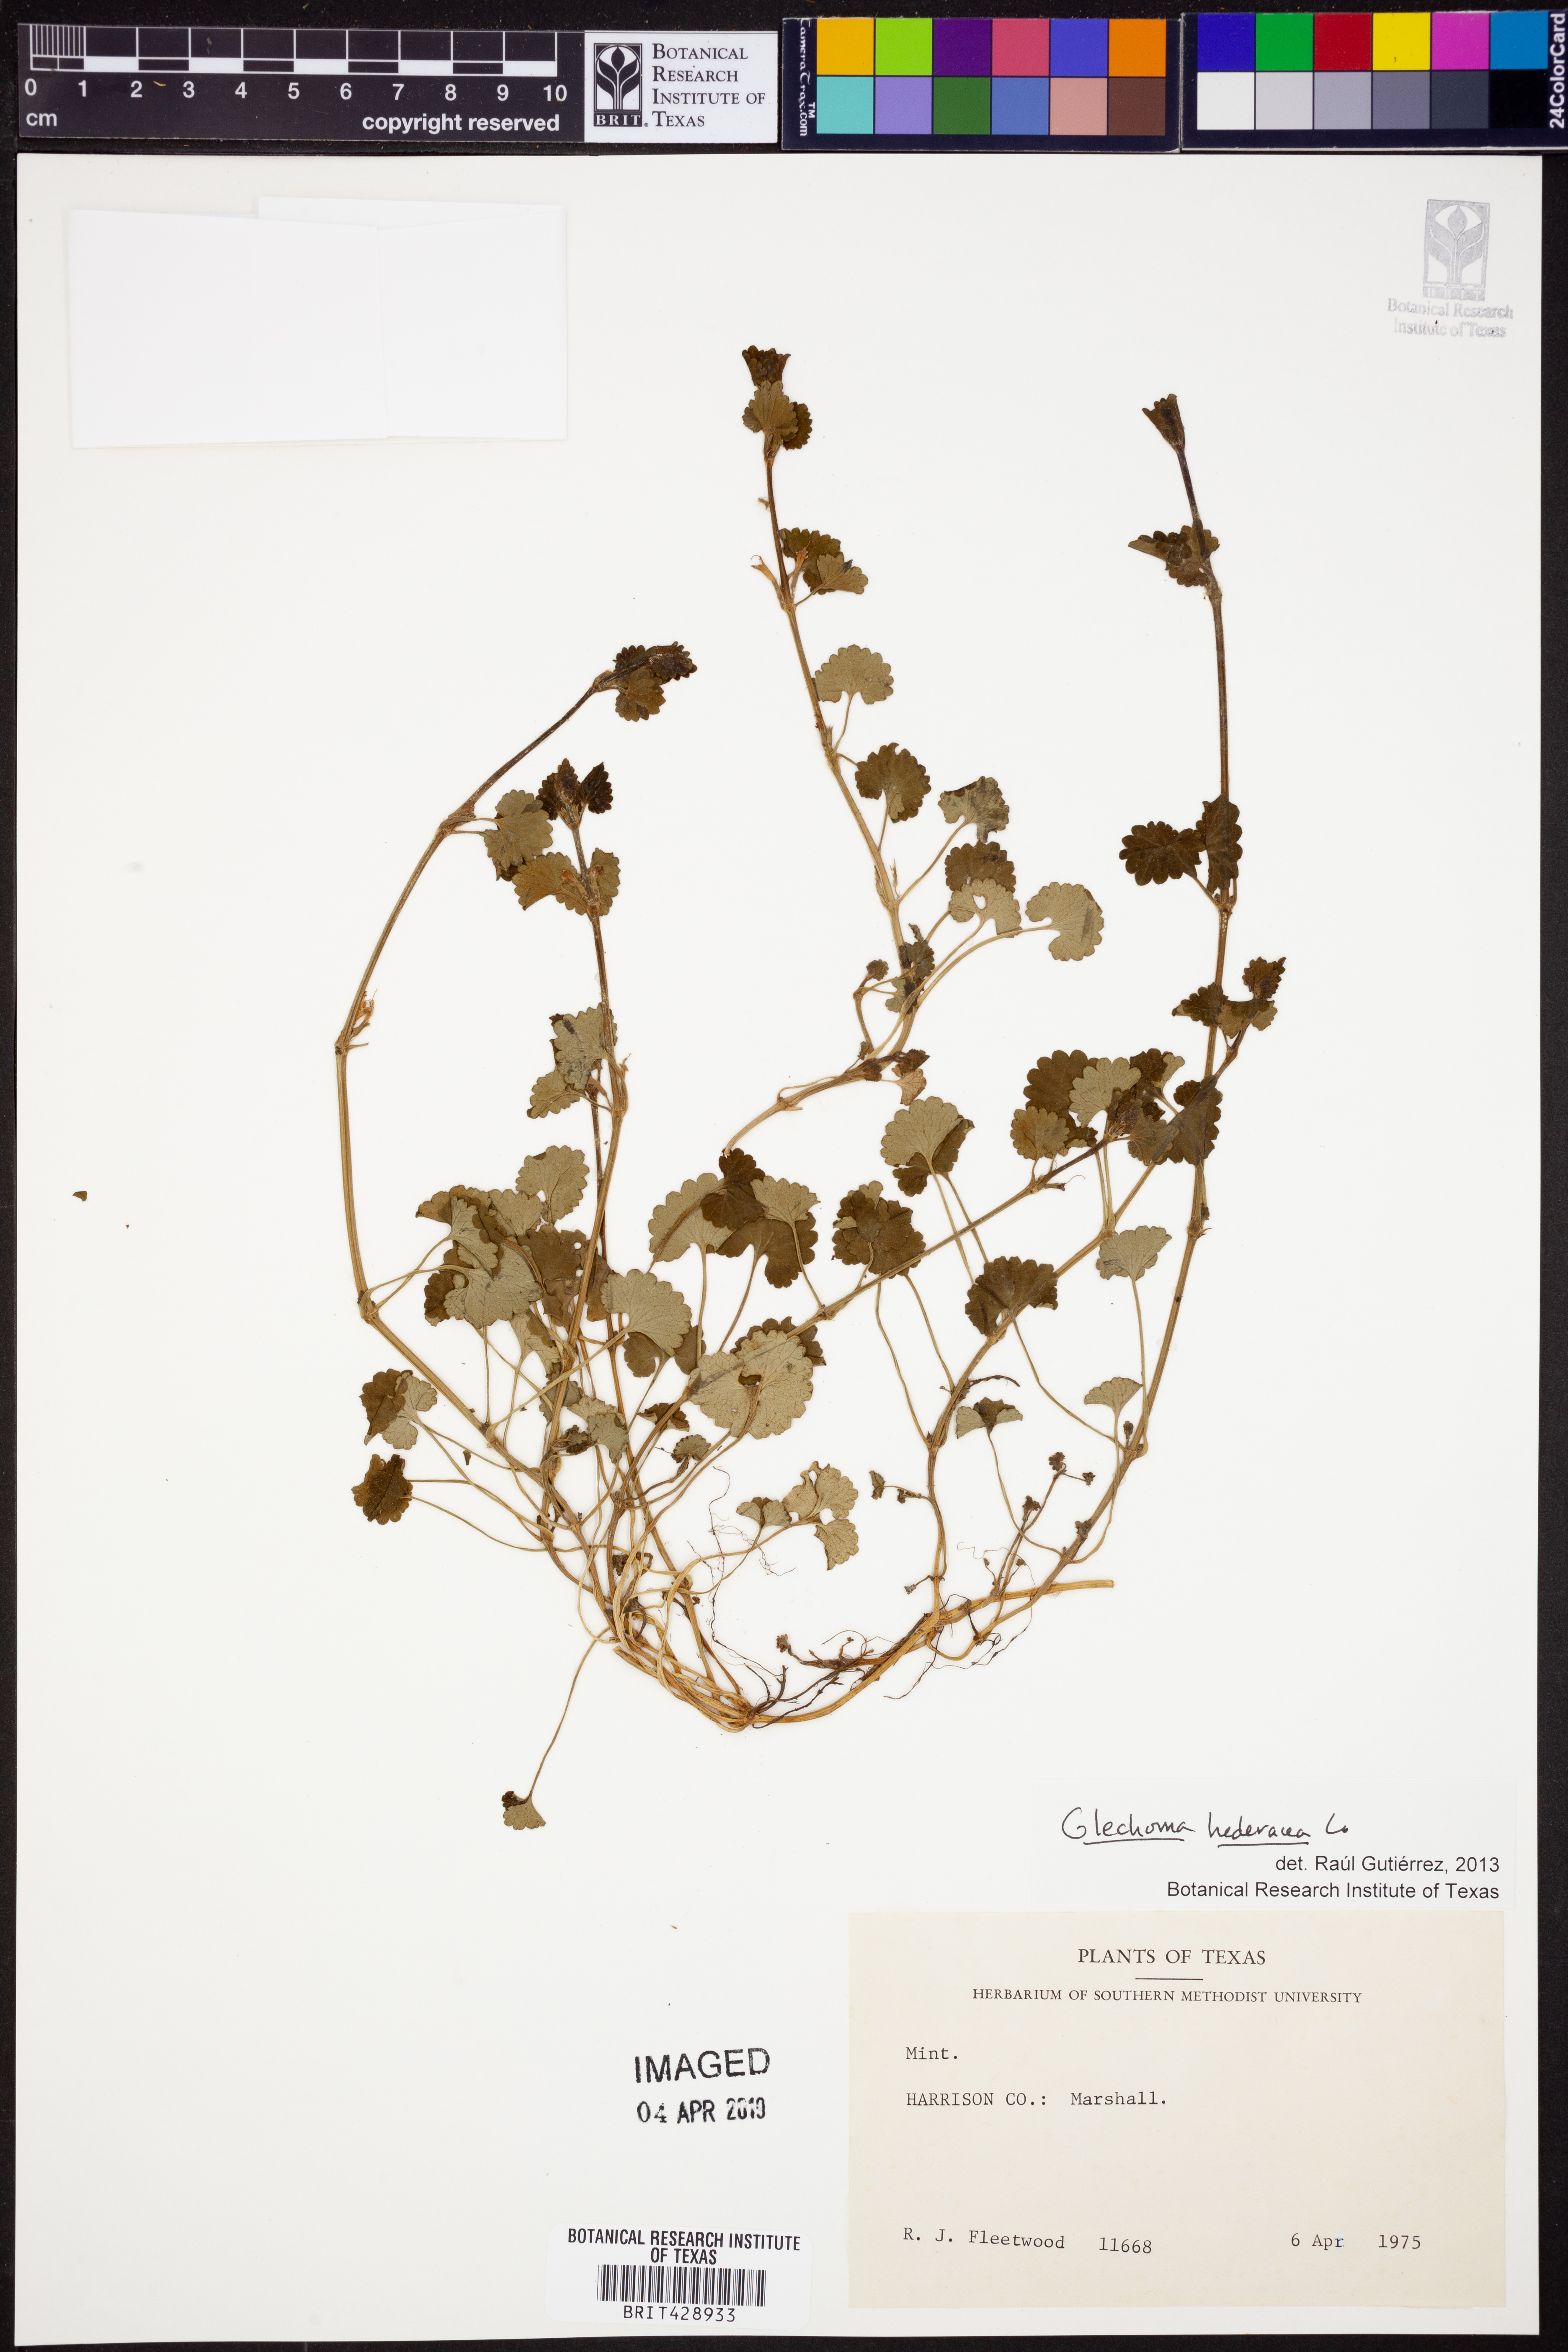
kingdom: Plantae
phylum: Tracheophyta
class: Magnoliopsida
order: Lamiales
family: Lamiaceae
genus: Glechoma
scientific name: Glechoma hederacea
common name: Ground ivy
